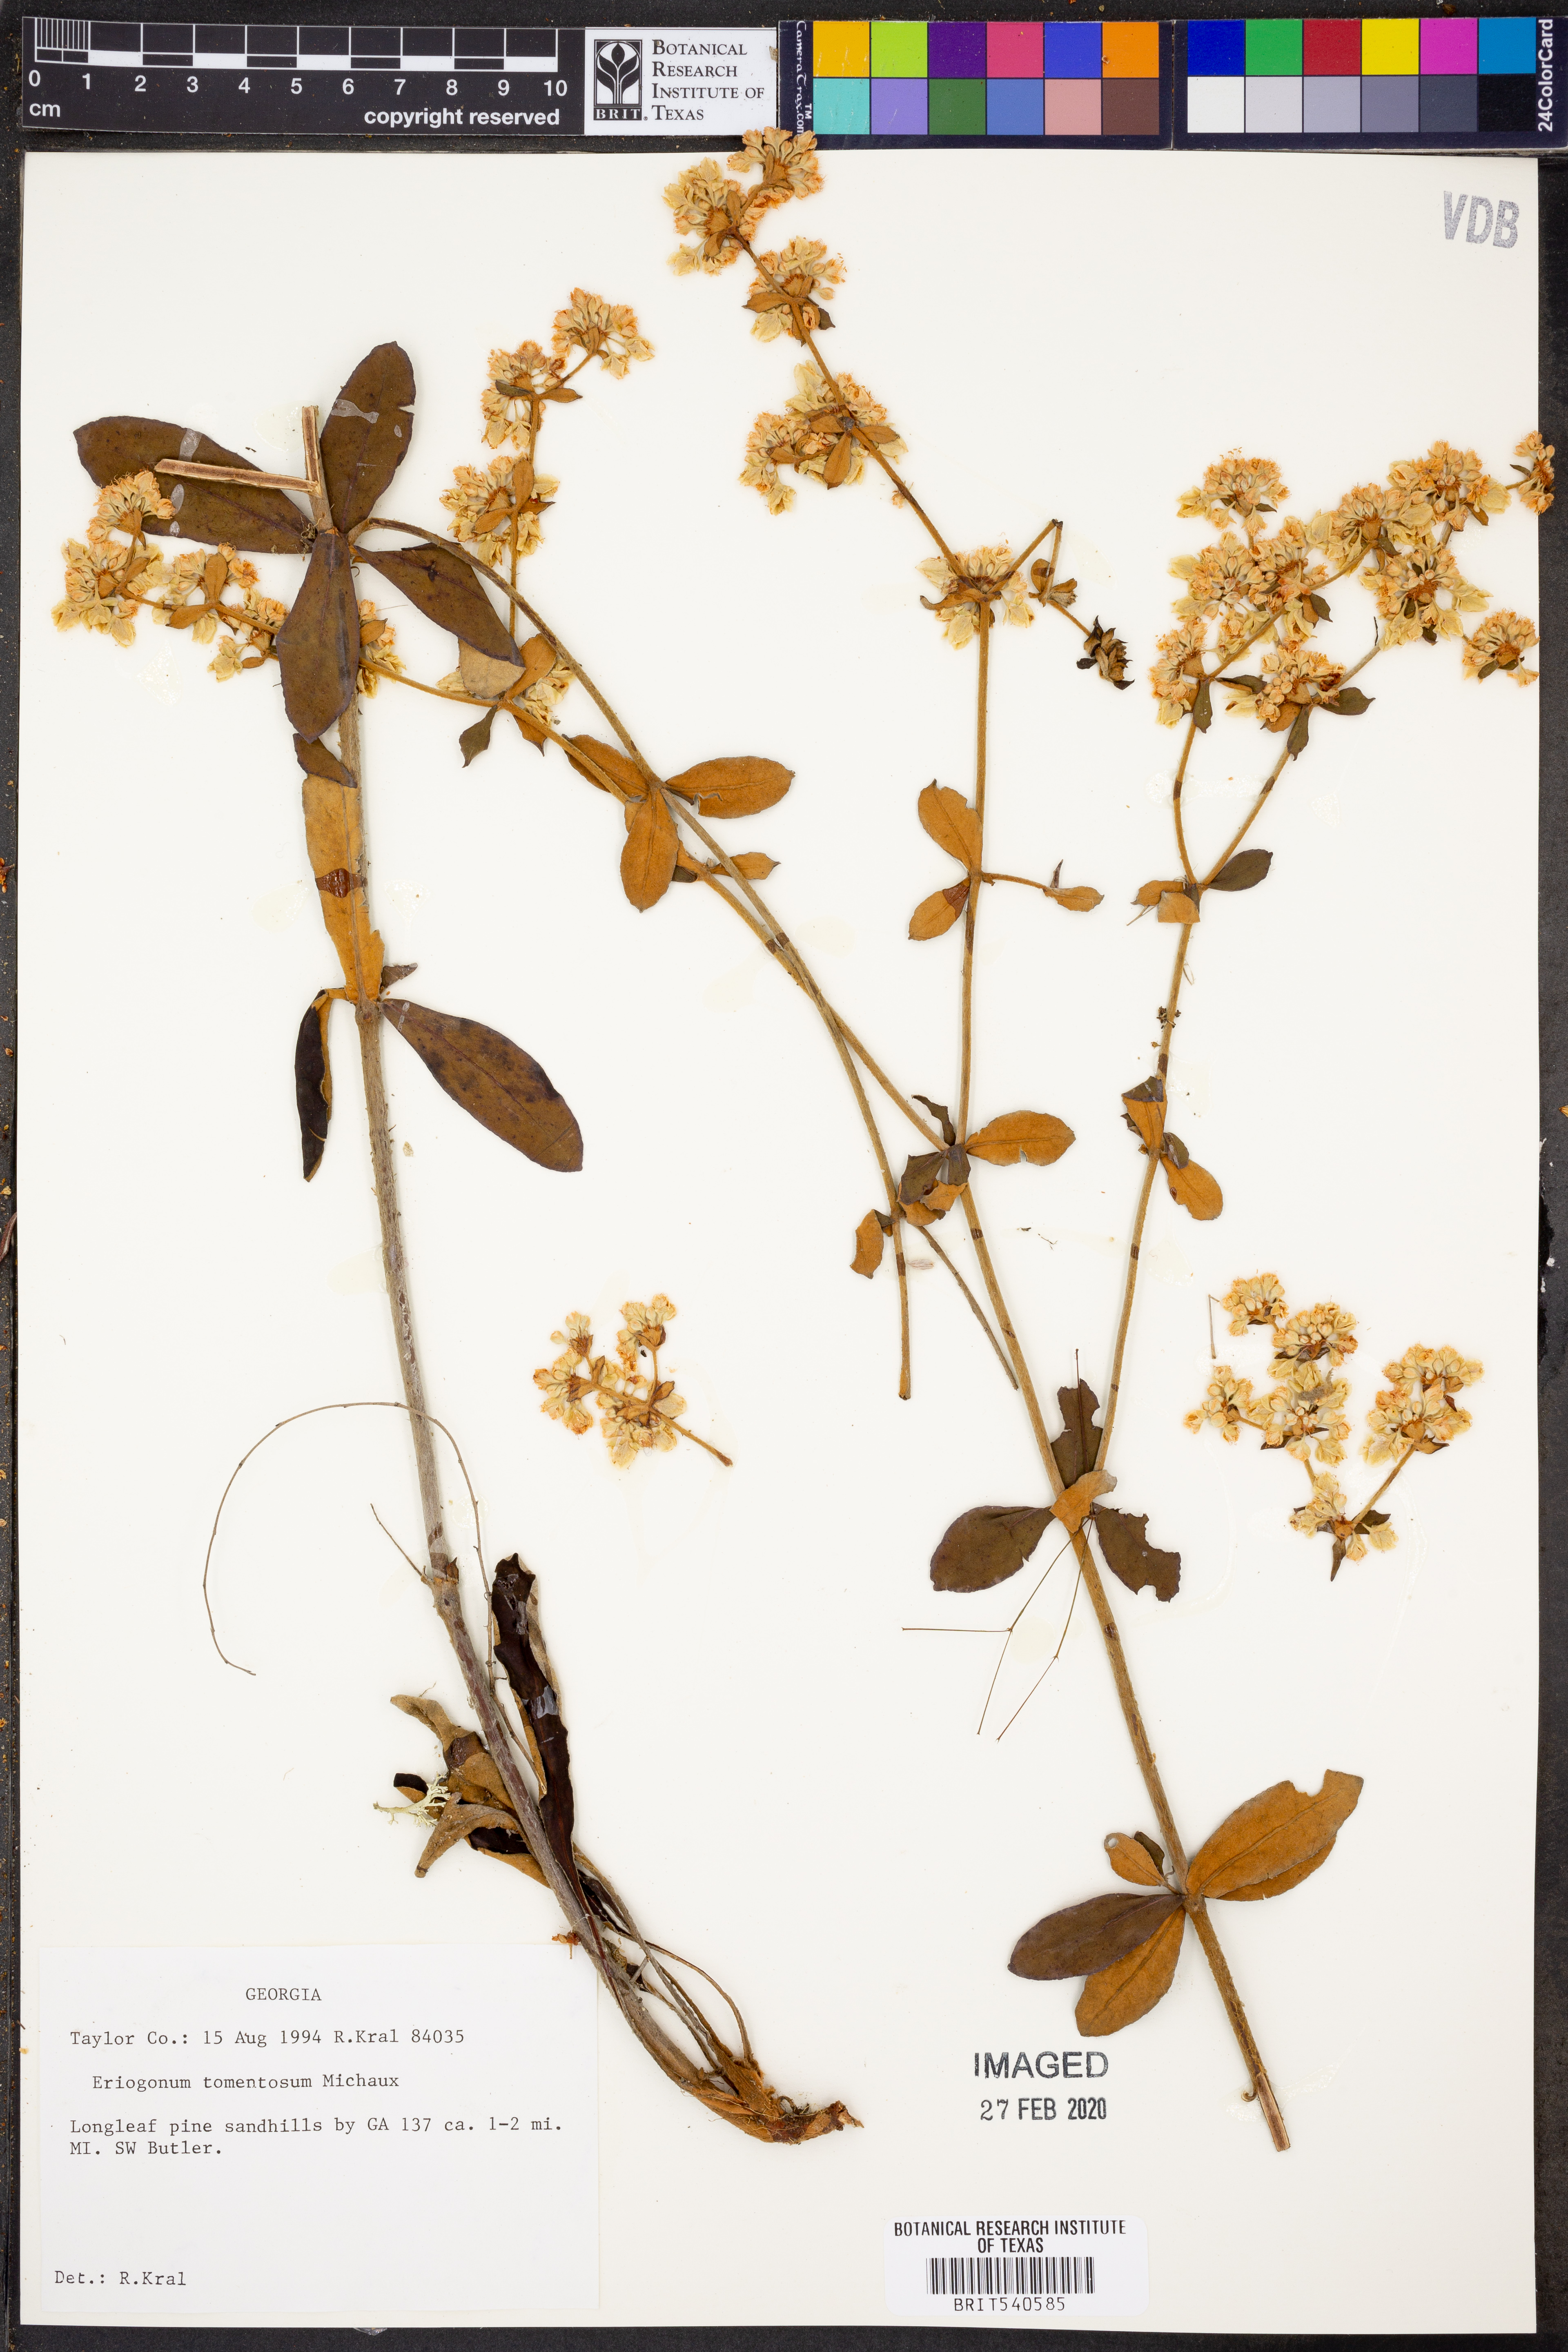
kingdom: Plantae
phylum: Tracheophyta
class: Magnoliopsida
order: Caryophyllales
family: Polygonaceae
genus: Eriogonum
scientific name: Eriogonum tomentosum
